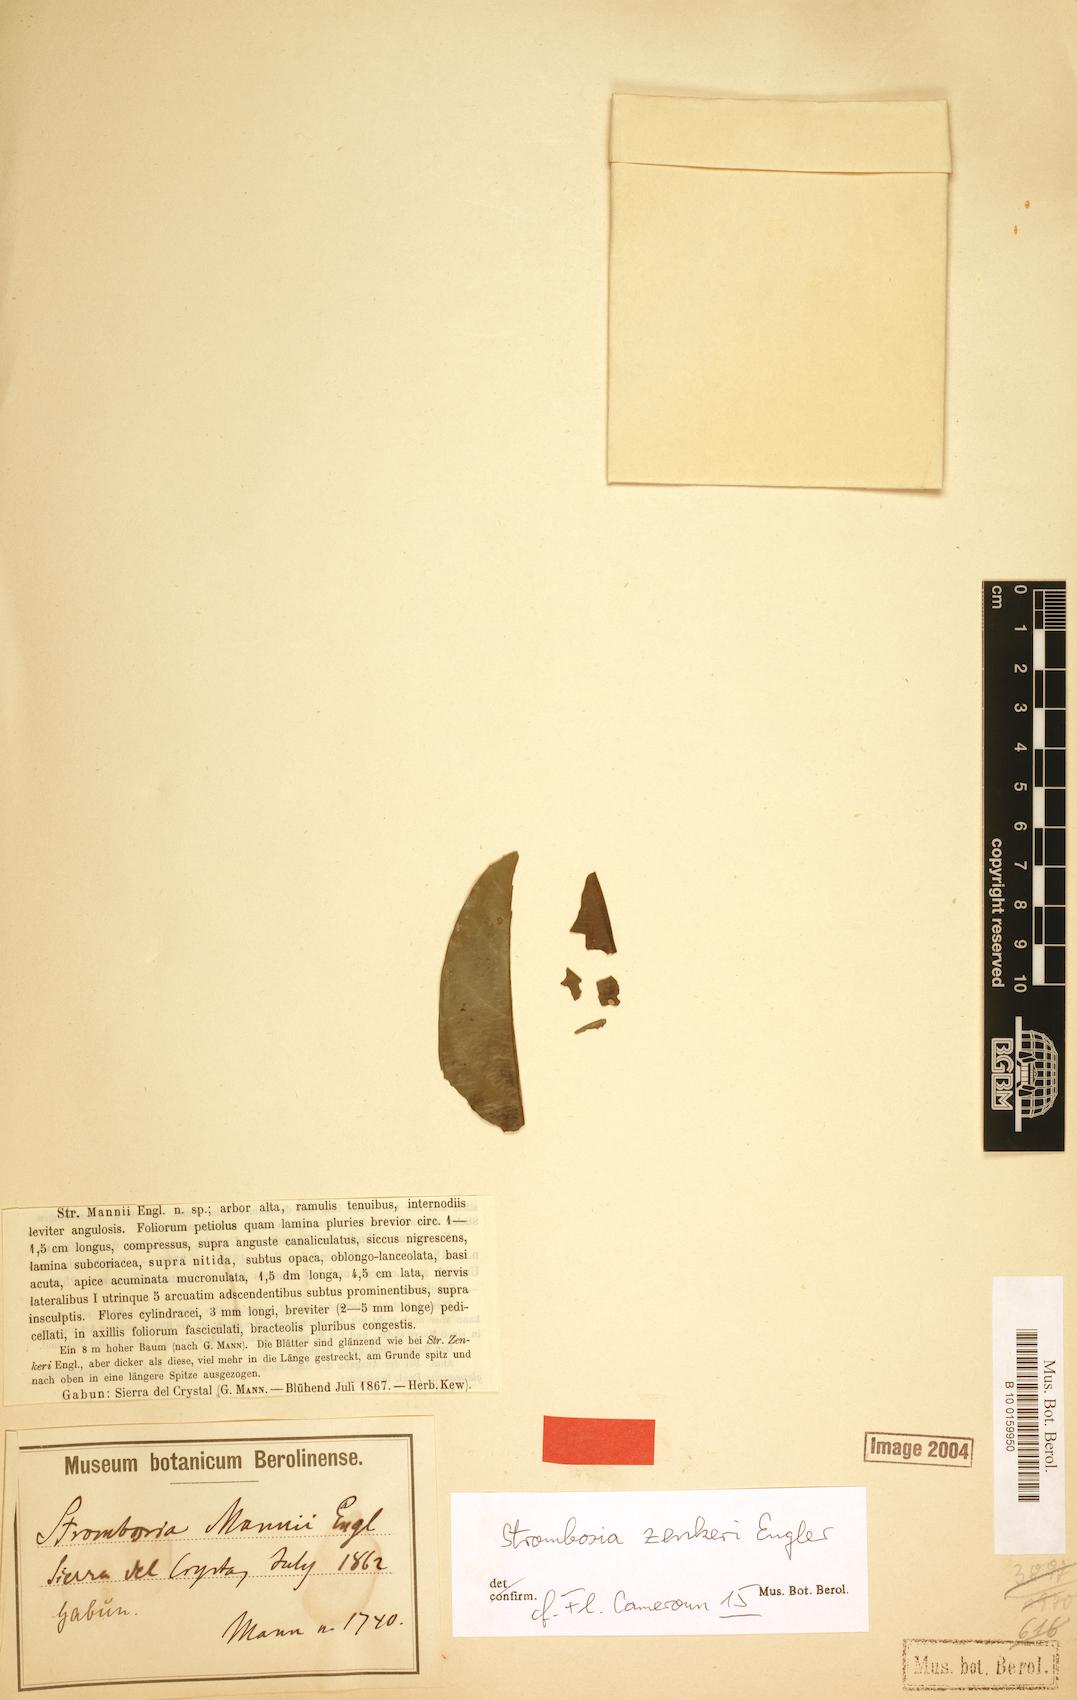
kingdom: Plantae
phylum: Tracheophyta
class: Magnoliopsida
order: Santalales
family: Strombosiaceae
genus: Strombosia
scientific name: Strombosia zenkeri
